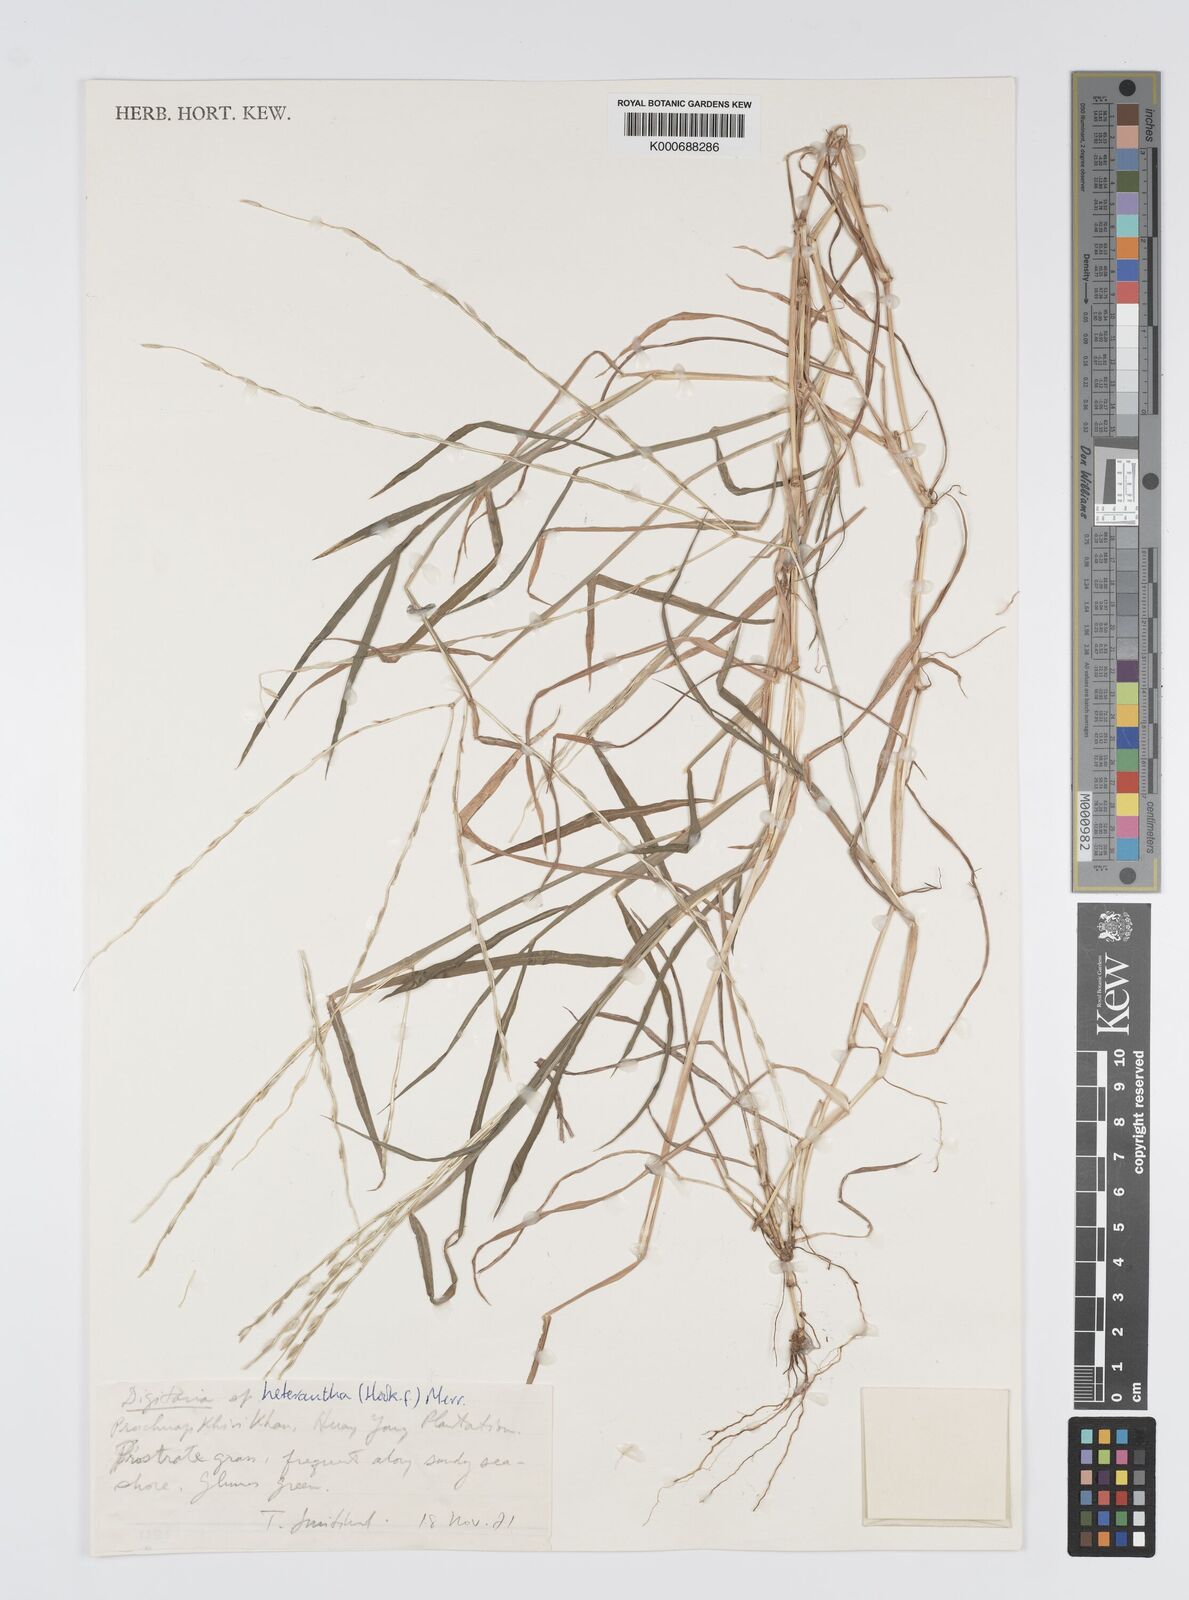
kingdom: Plantae
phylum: Tracheophyta
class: Liliopsida
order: Poales
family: Poaceae
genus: Digitaria
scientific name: Digitaria heterantha
